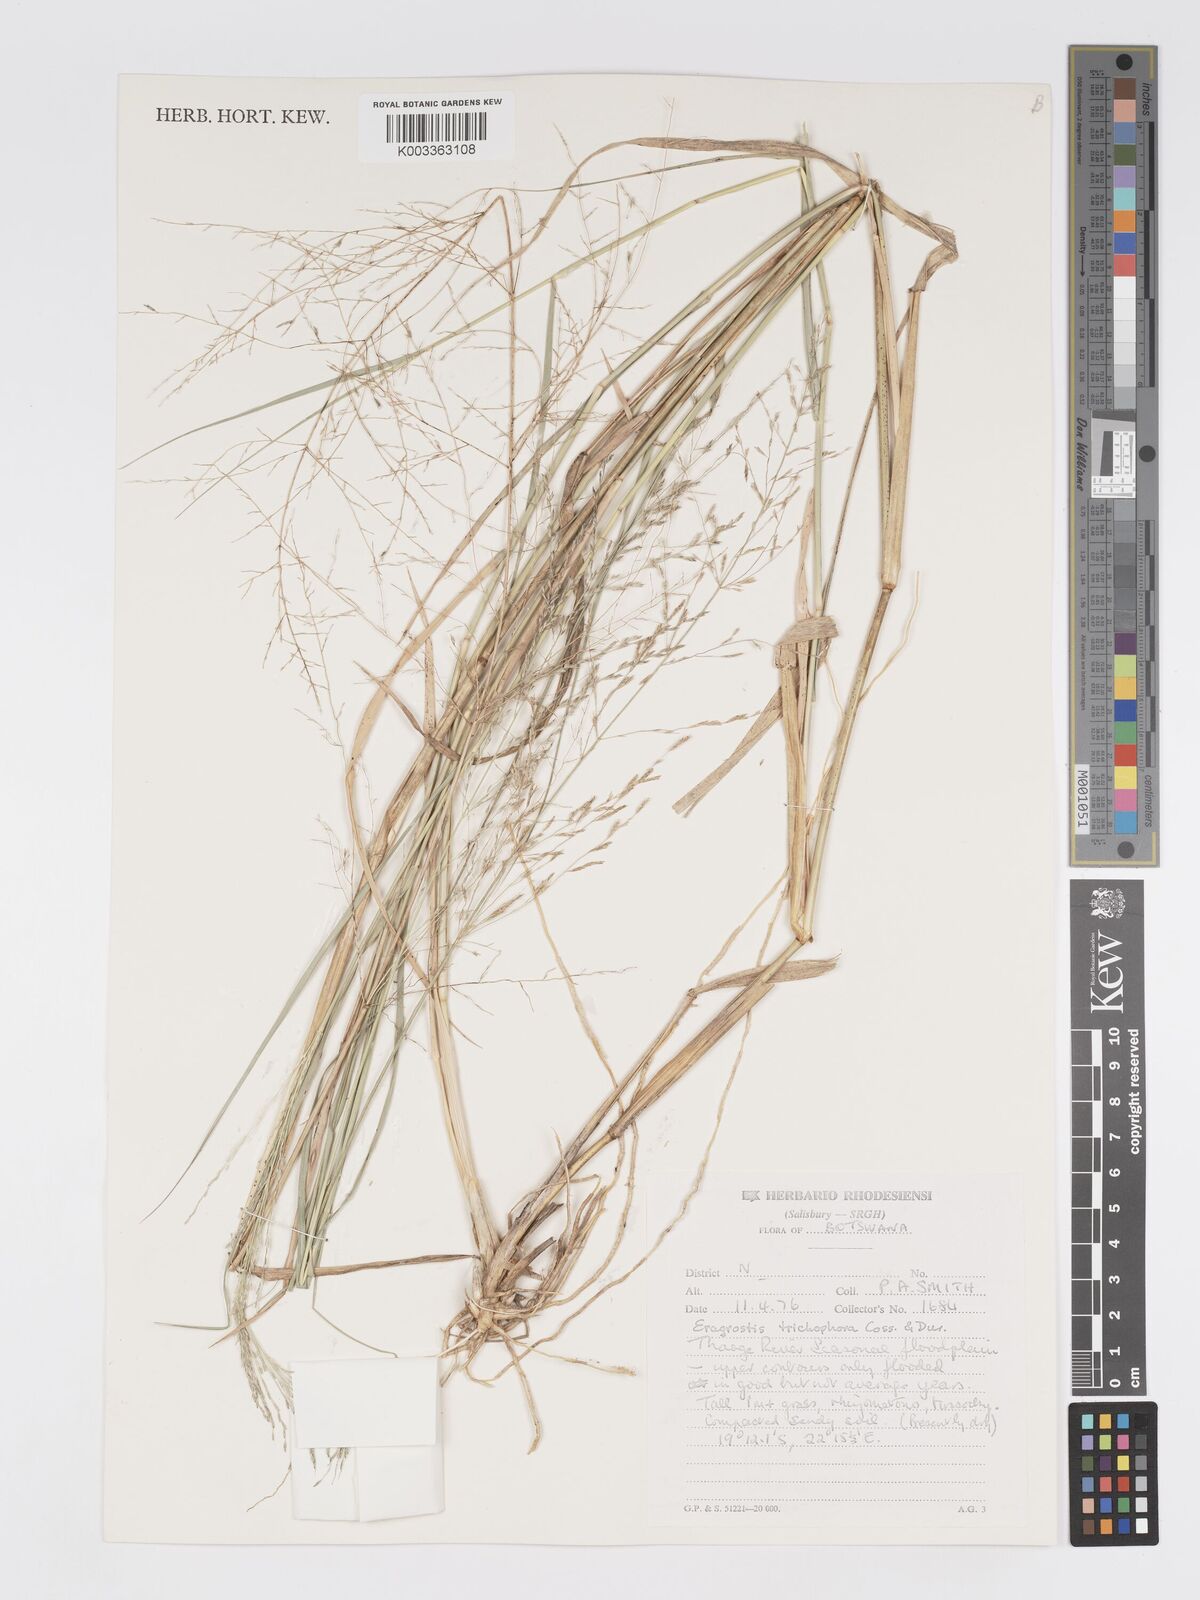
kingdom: Plantae
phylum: Tracheophyta
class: Liliopsida
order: Poales
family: Poaceae
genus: Eragrostis
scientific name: Eragrostis cylindriflora
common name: Cylinderflower lovegrass
